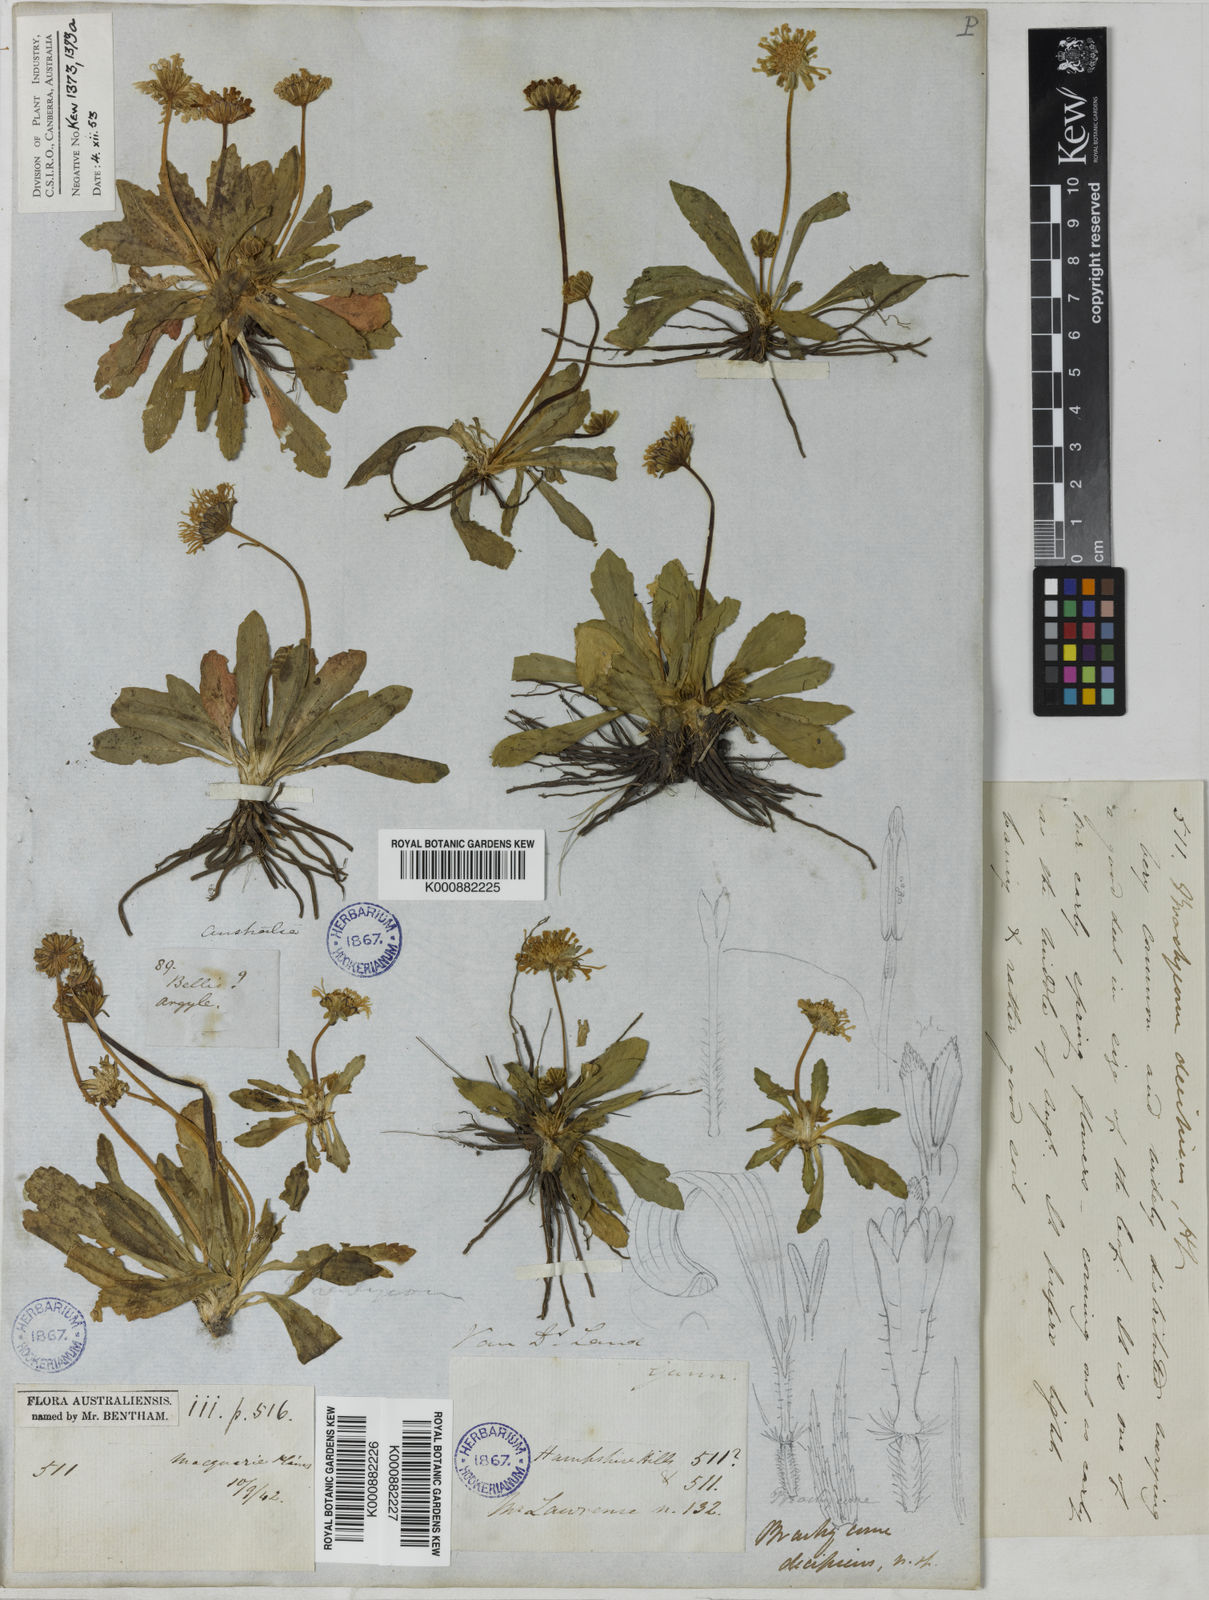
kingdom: Plantae
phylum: Tracheophyta
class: Magnoliopsida
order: Asterales
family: Asteraceae
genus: Brachyscome
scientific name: Brachyscome decipiens
